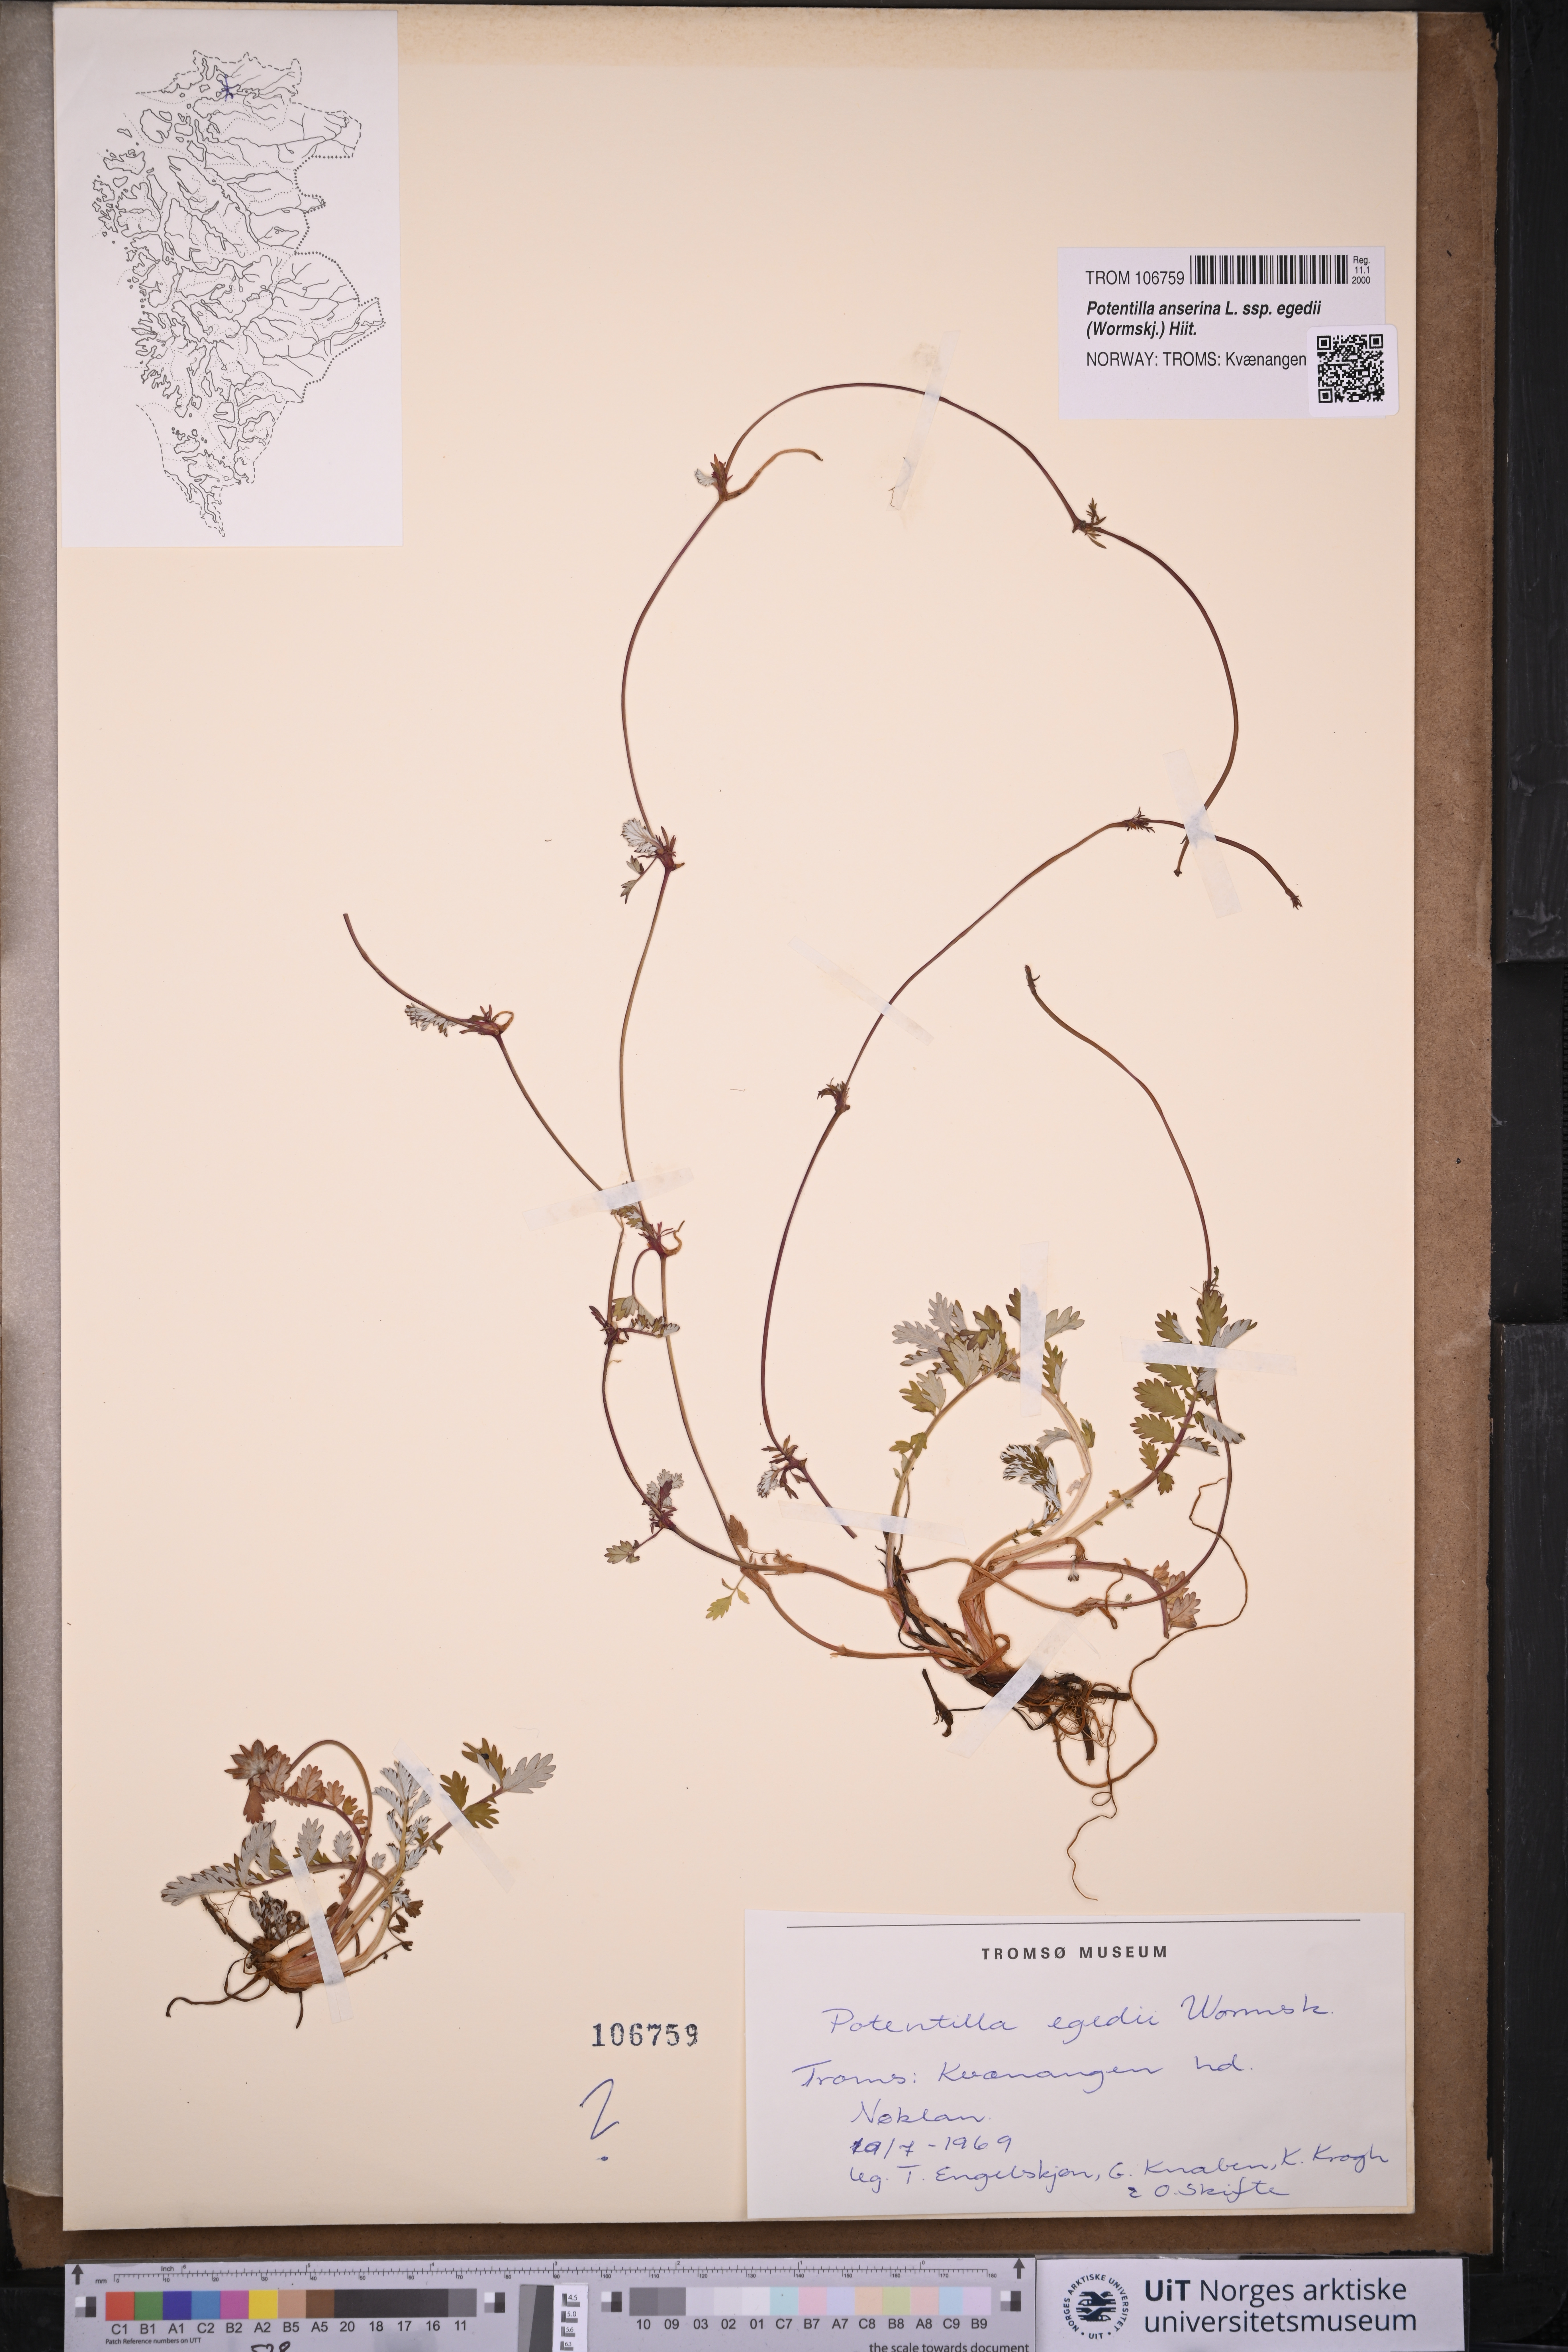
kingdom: Plantae
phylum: Tracheophyta
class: Magnoliopsida
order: Rosales
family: Rosaceae
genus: Argentina
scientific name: Argentina anserina
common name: Common silverweed
